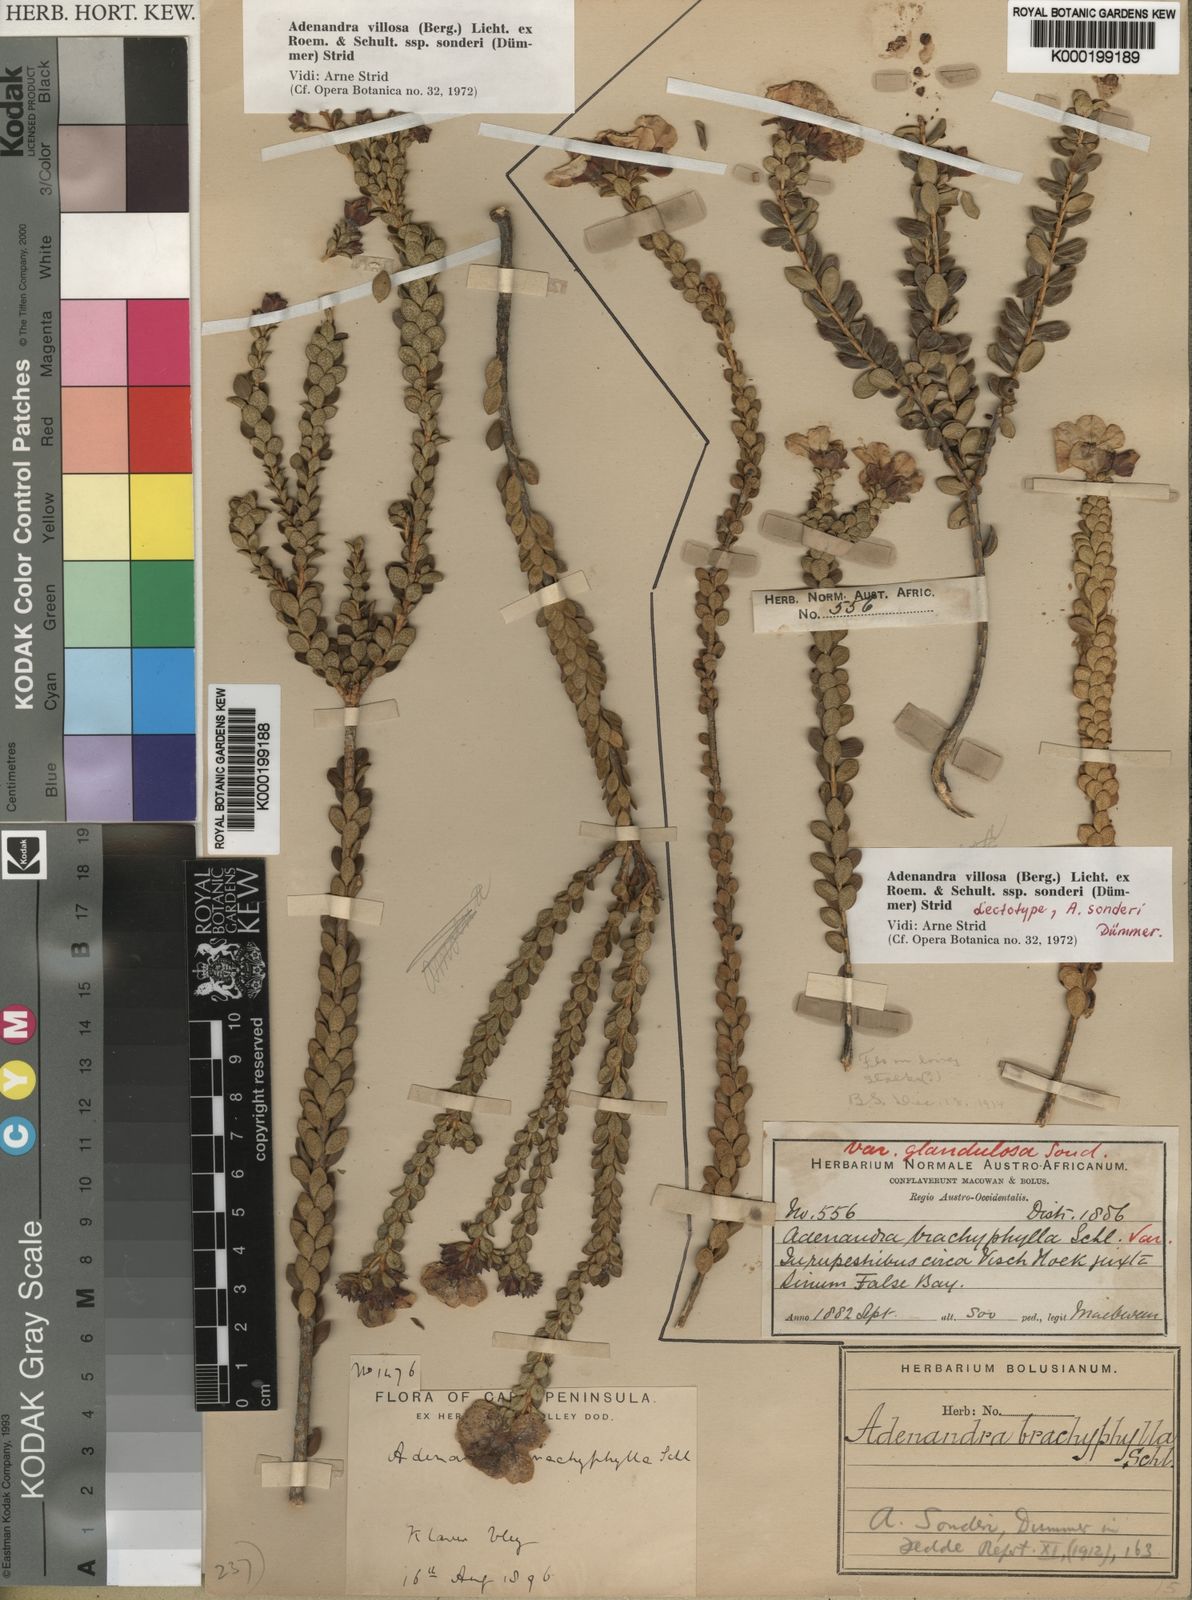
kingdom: Plantae
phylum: Tracheophyta
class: Magnoliopsida
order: Sapindales
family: Rutaceae
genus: Adenandra
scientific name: Adenandra villosa
